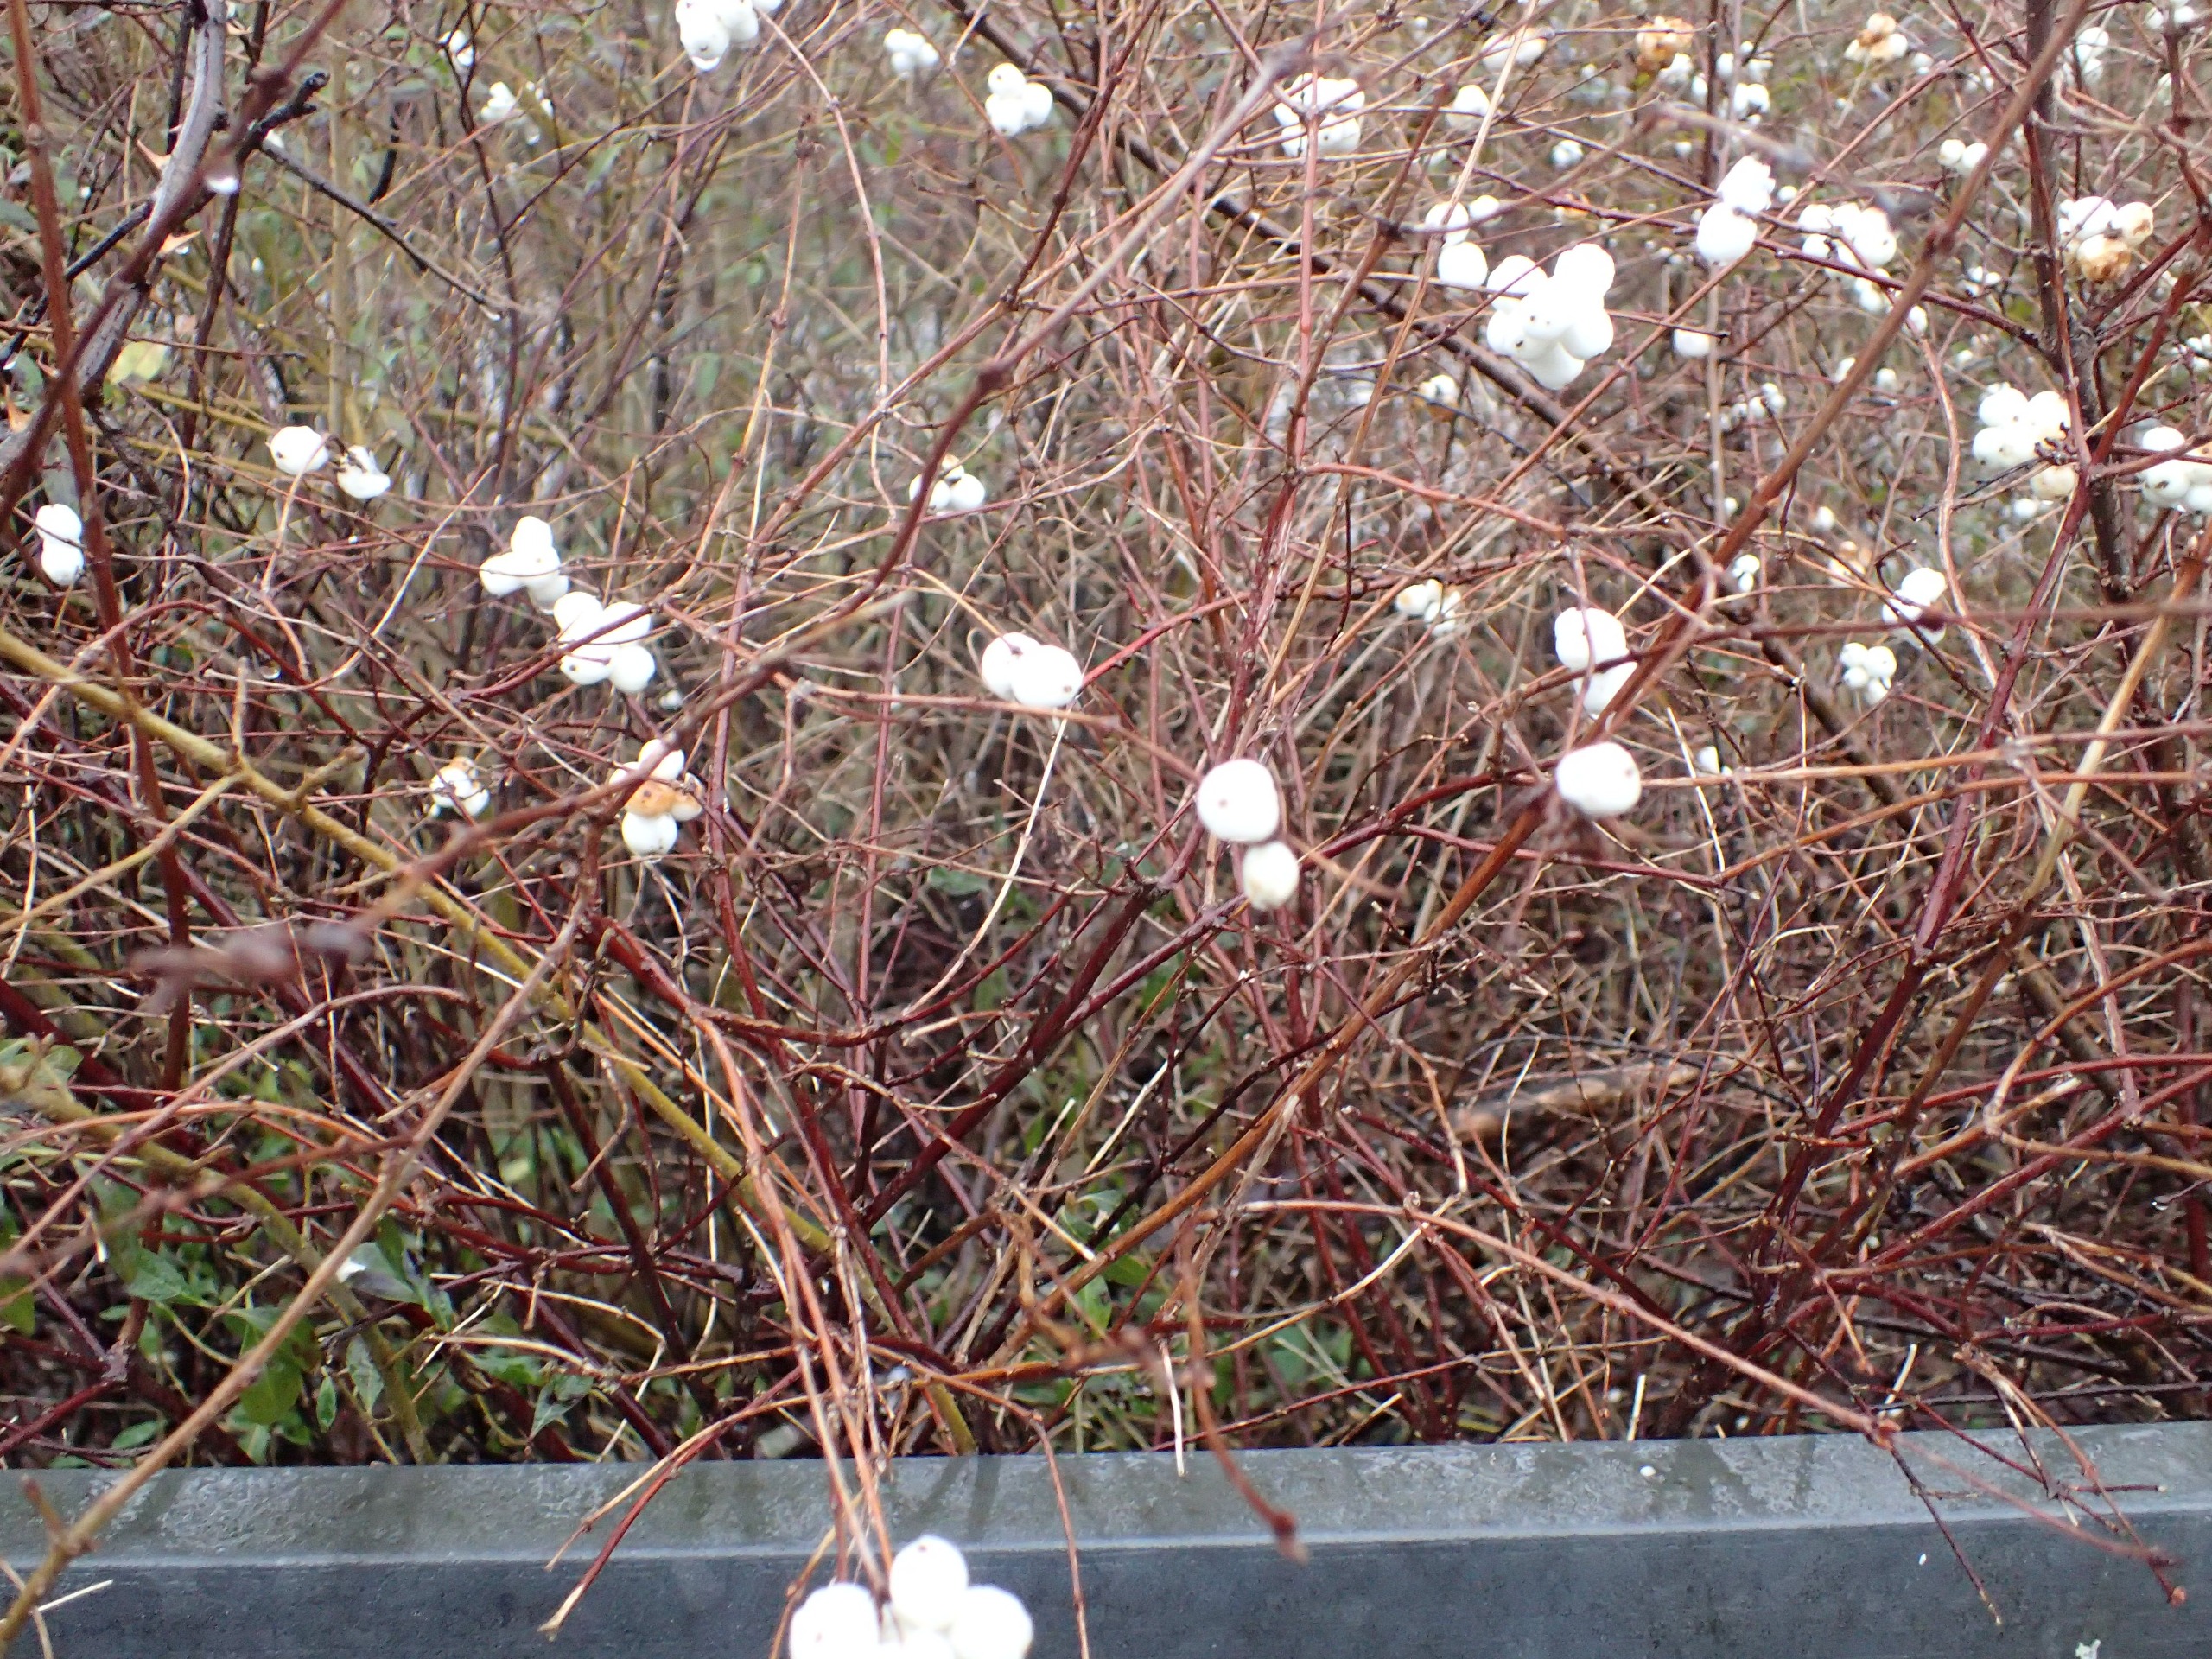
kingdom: Plantae
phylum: Tracheophyta
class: Magnoliopsida
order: Dipsacales
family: Caprifoliaceae
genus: Symphoricarpos
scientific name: Symphoricarpos albus
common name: Almindelig snebær
